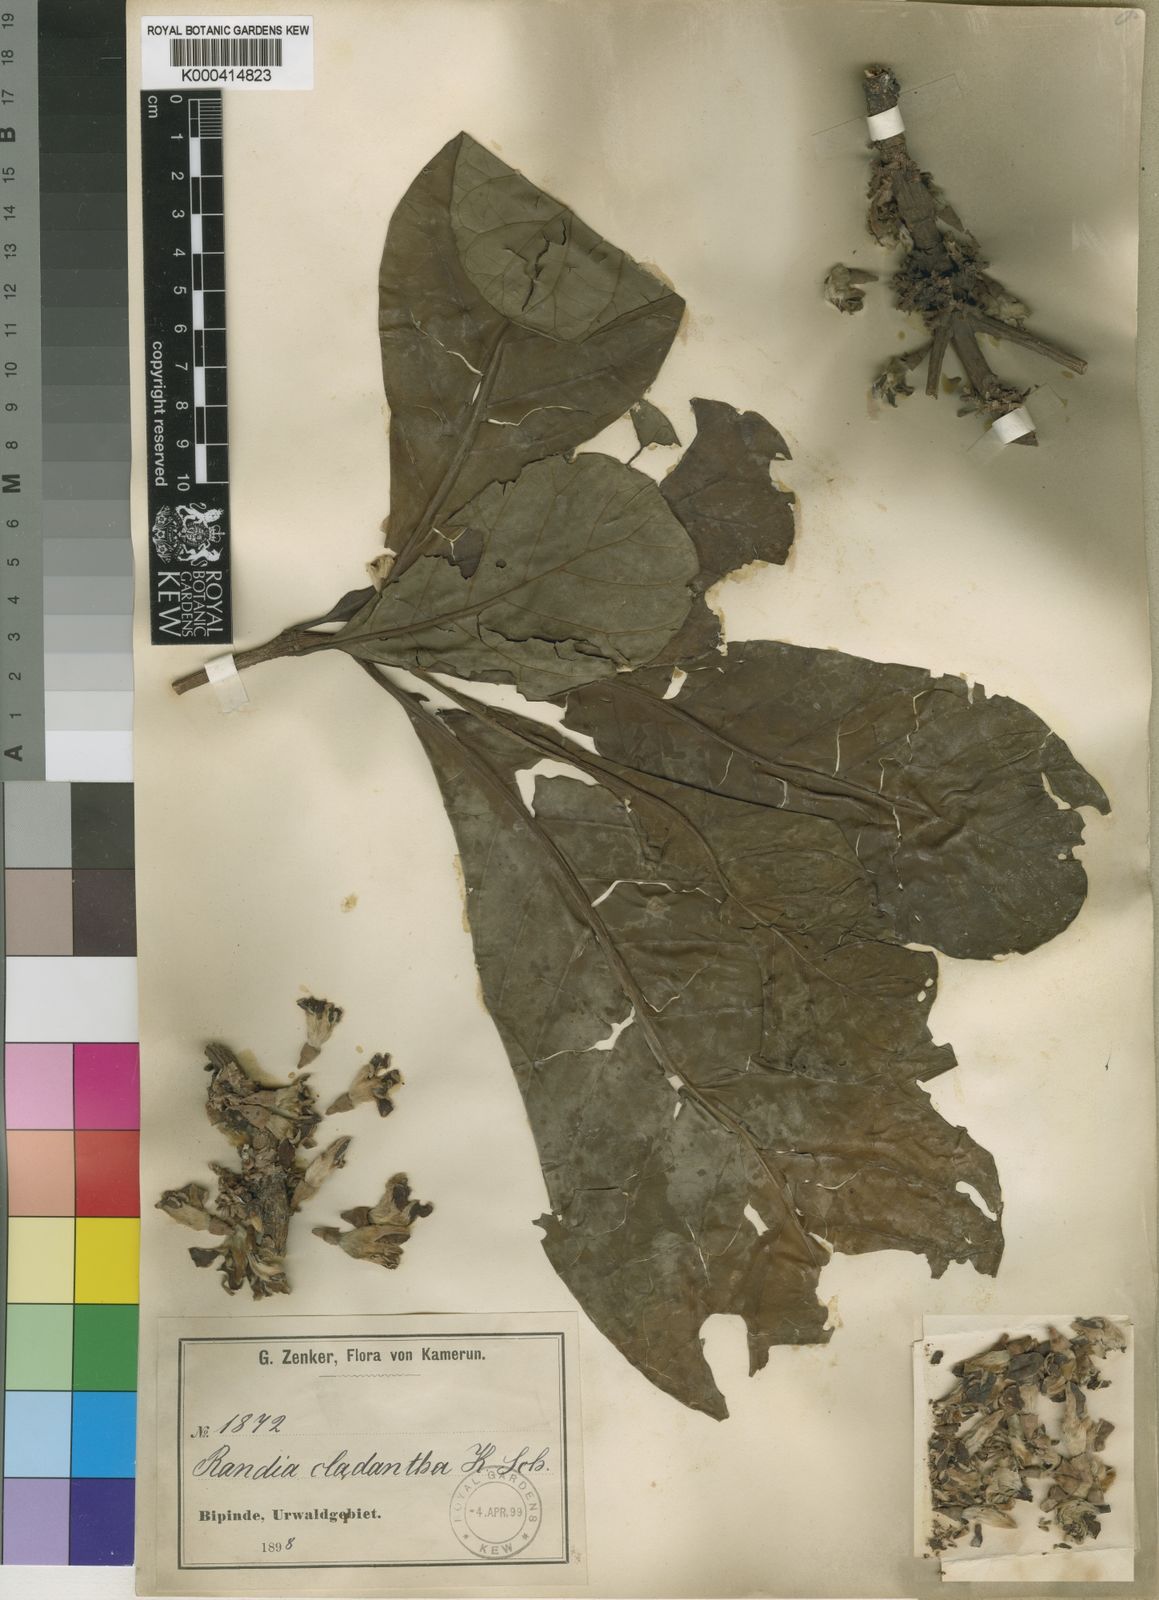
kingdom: Plantae
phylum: Tracheophyta
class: Magnoliopsida
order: Gentianales
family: Rubiaceae
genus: Aoranthe
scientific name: Aoranthe cladantha
